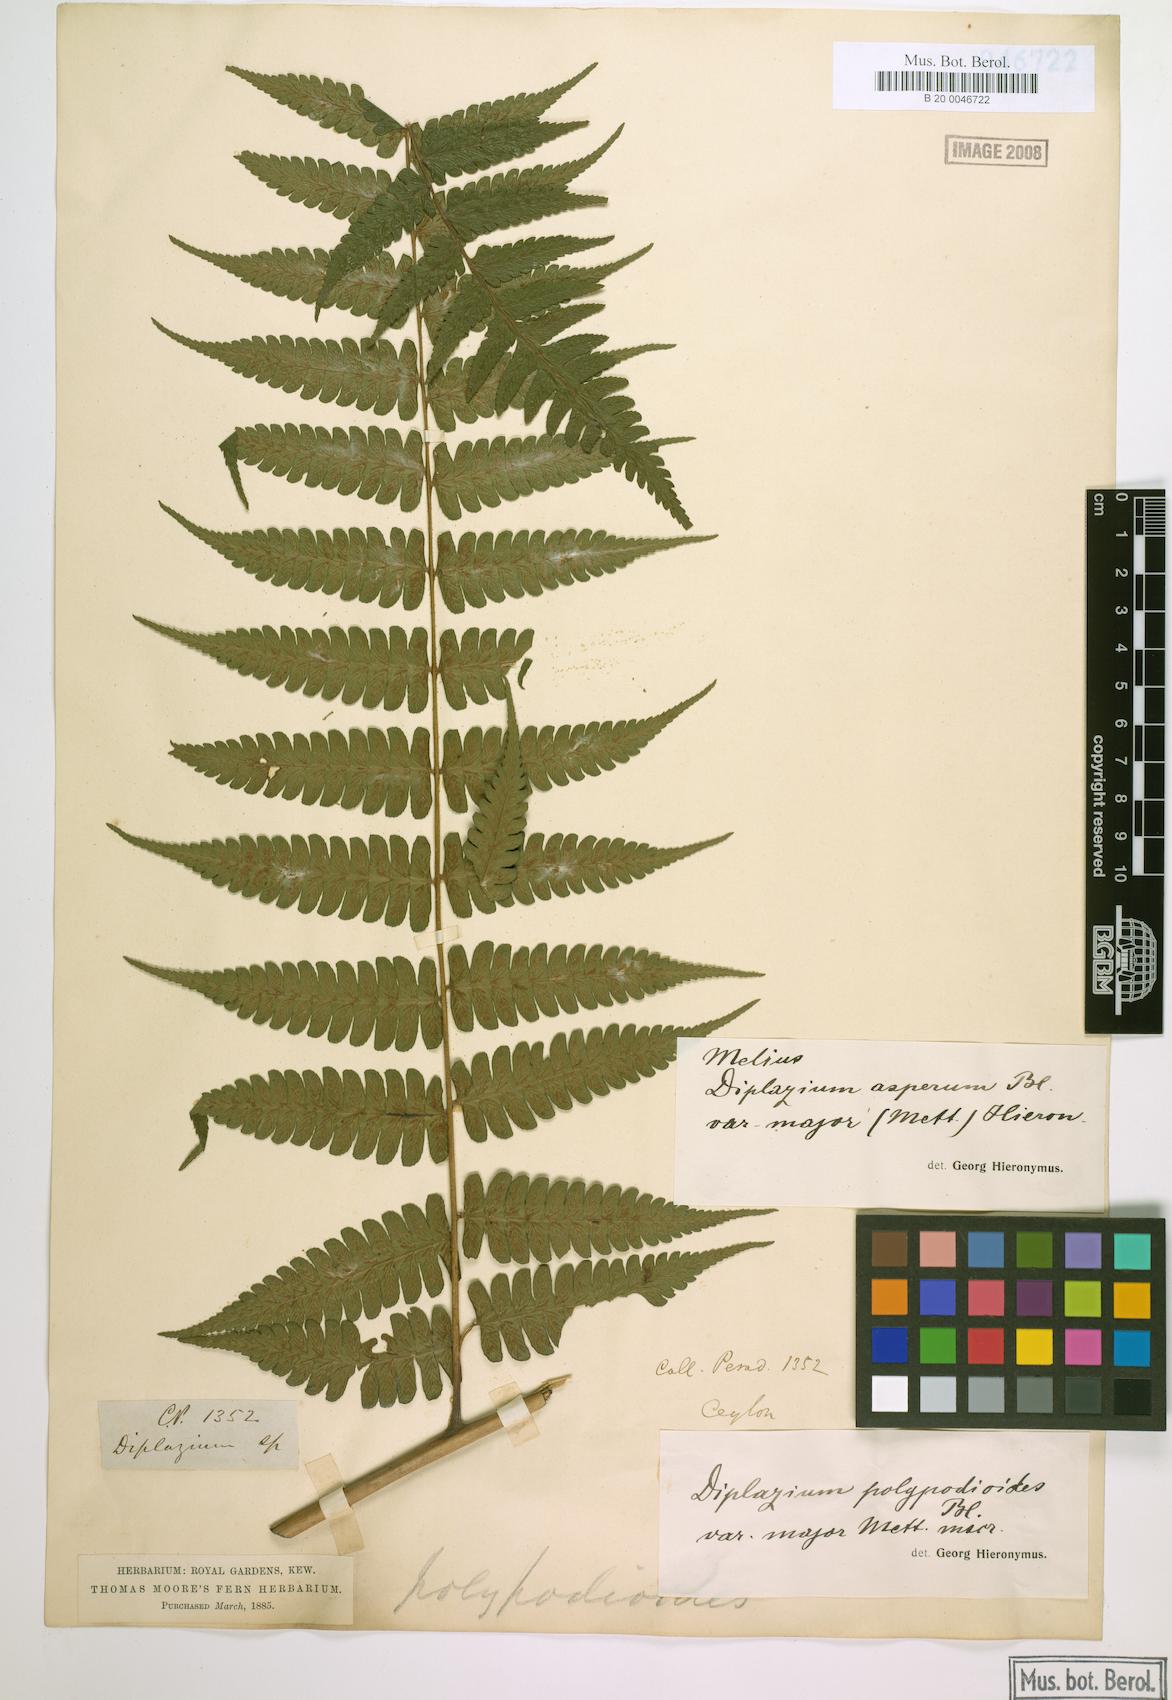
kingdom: Plantae
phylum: Tracheophyta
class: Polypodiopsida
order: Polypodiales
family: Athyriaceae
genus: Diplazium
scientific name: Diplazium polypodioides
